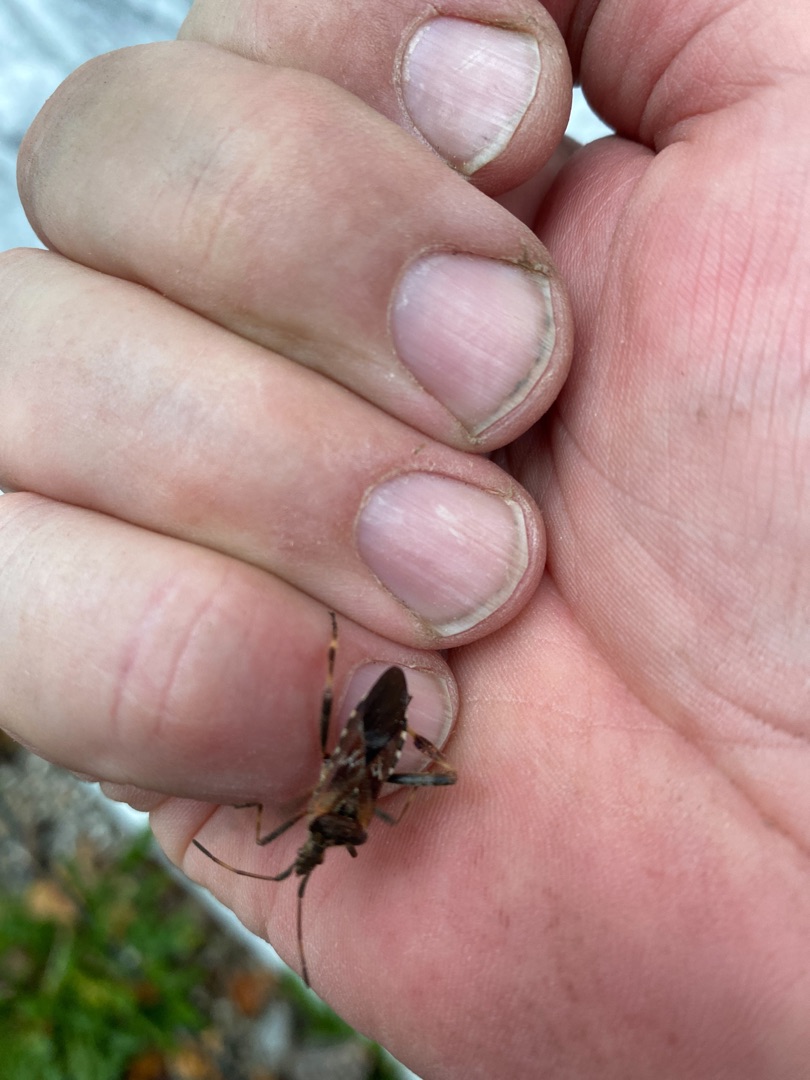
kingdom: Animalia
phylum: Arthropoda
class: Insecta
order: Hemiptera
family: Coreidae
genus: Leptoglossus
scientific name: Leptoglossus occidentalis
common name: Amerikansk fyrretæge
